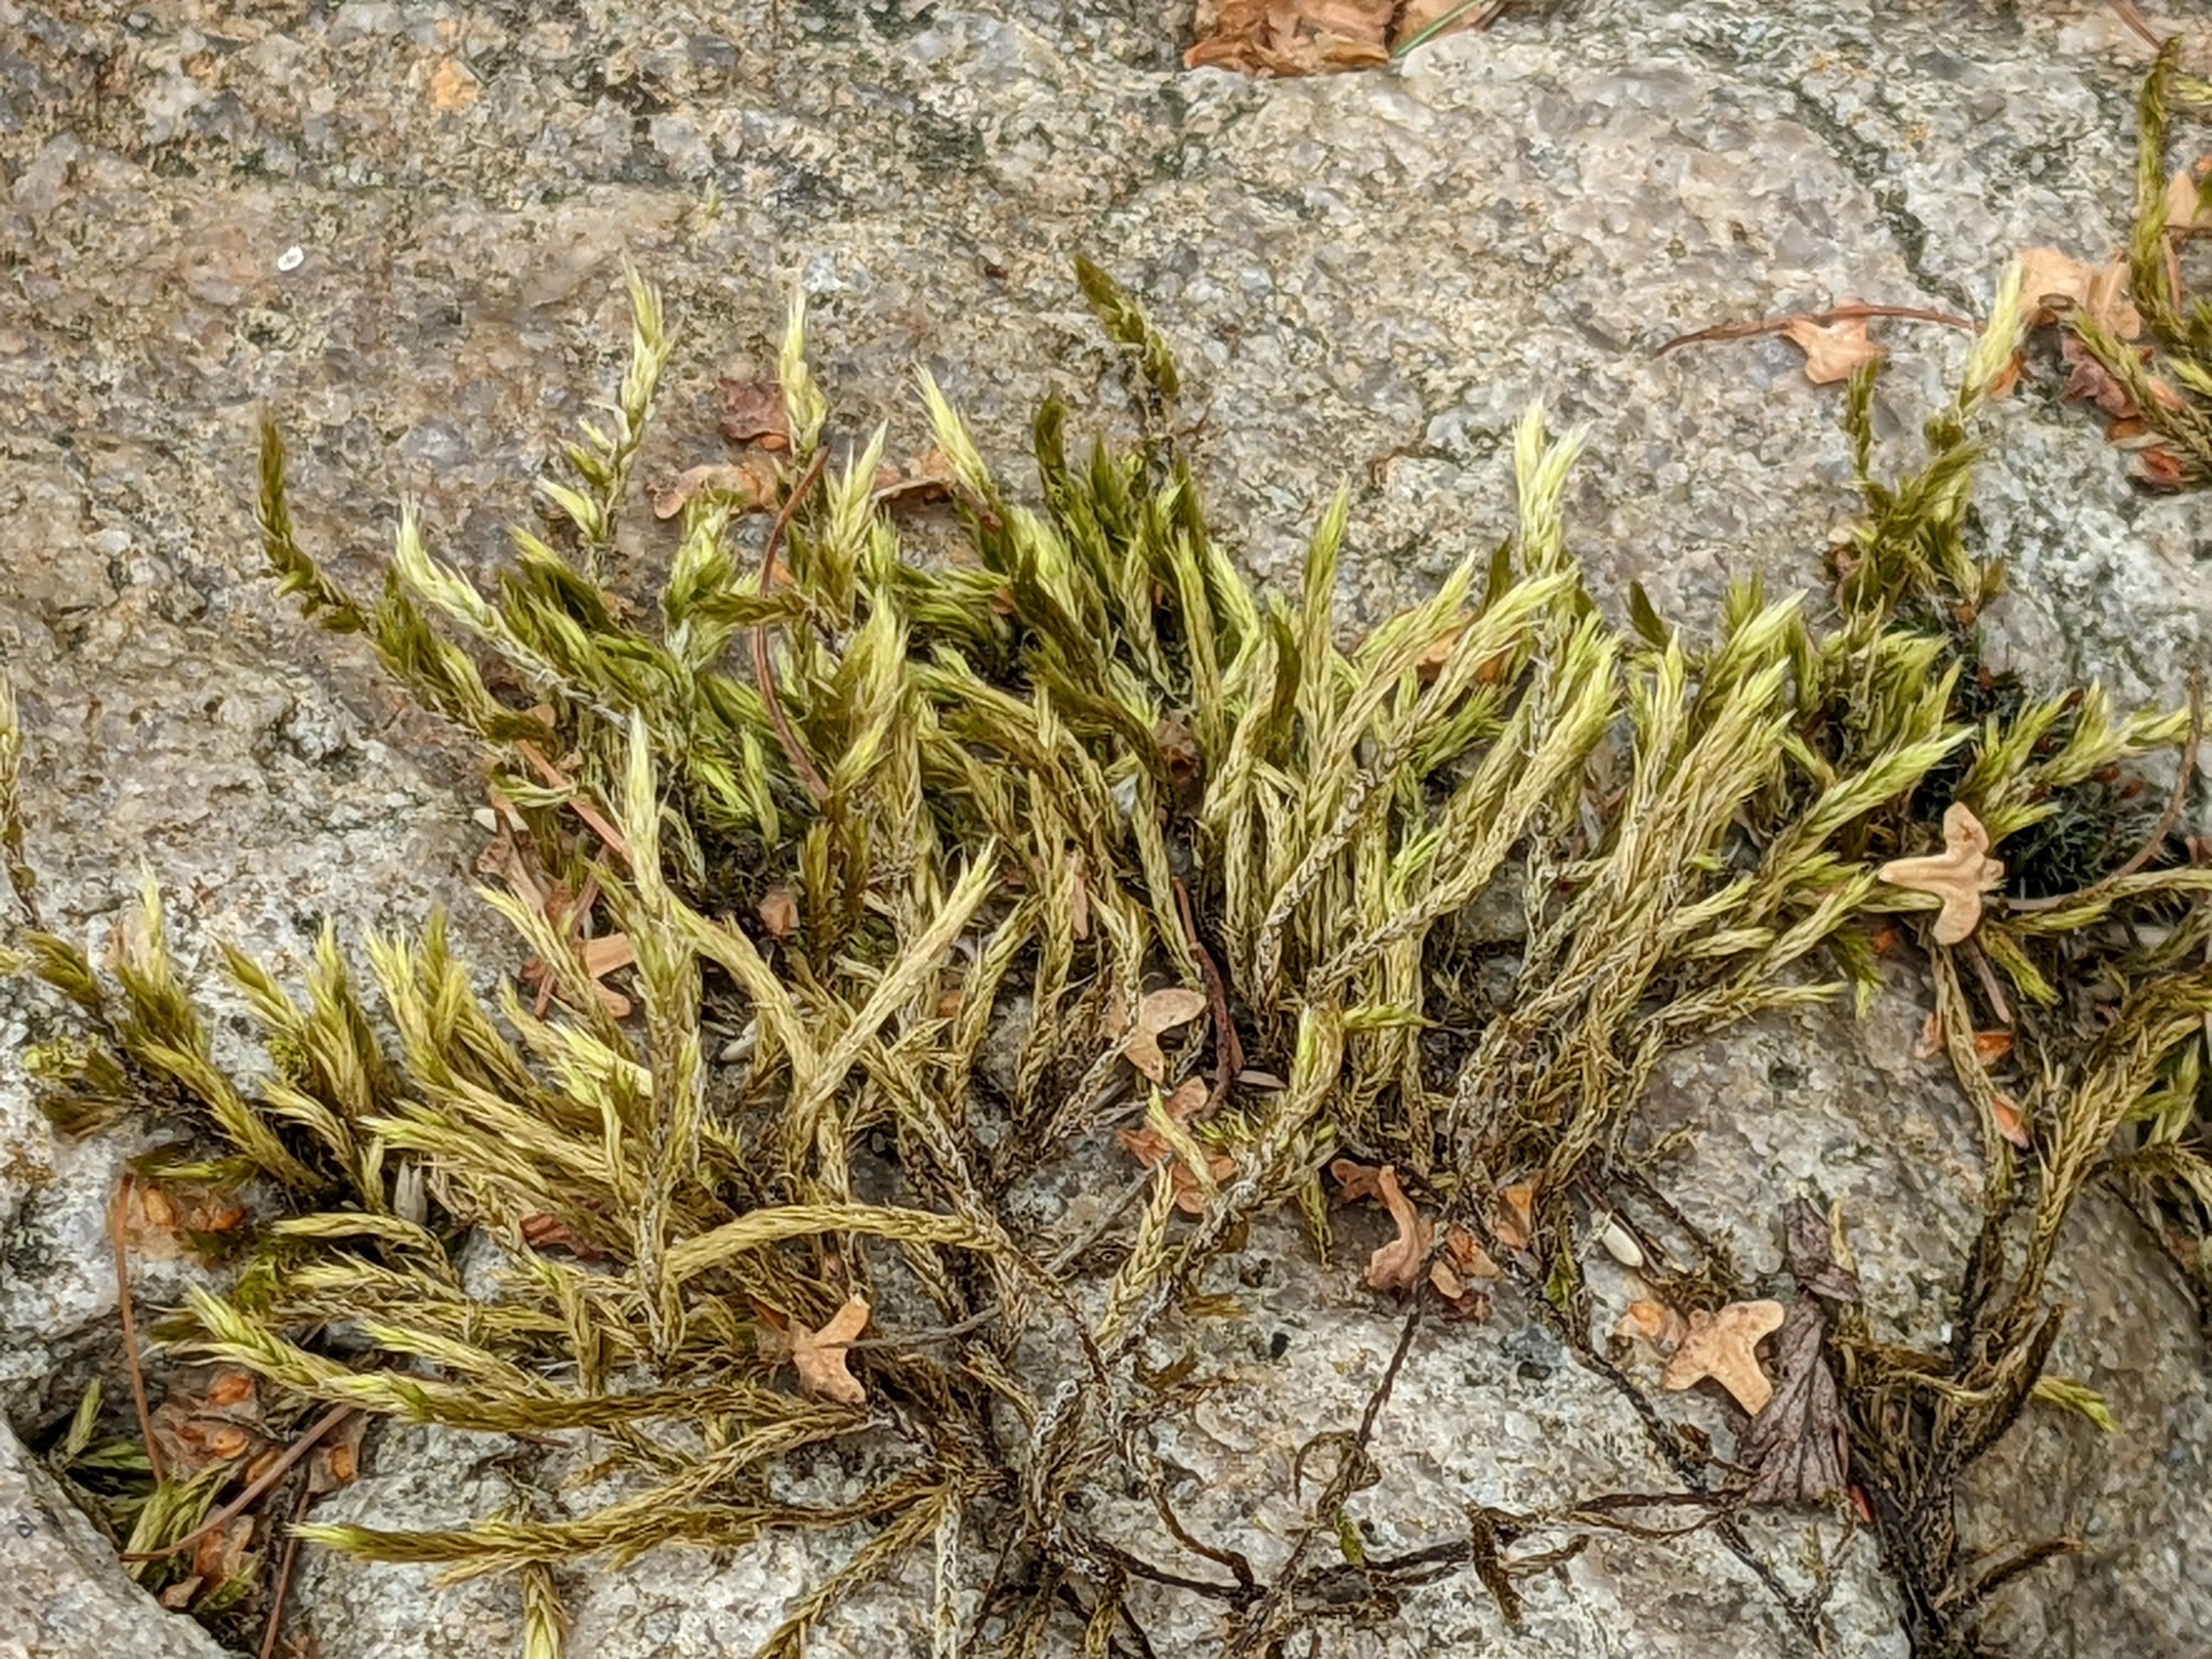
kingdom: Plantae
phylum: Bryophyta
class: Bryopsida
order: Hypnales
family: Brachytheciaceae
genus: Homalothecium
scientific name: Homalothecium lutescens
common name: Gul krumkapsel
